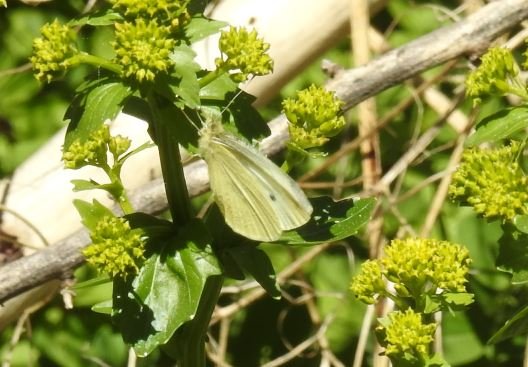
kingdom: Animalia
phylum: Arthropoda
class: Insecta
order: Lepidoptera
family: Pieridae
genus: Pieris
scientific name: Pieris rapae
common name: Cabbage White
